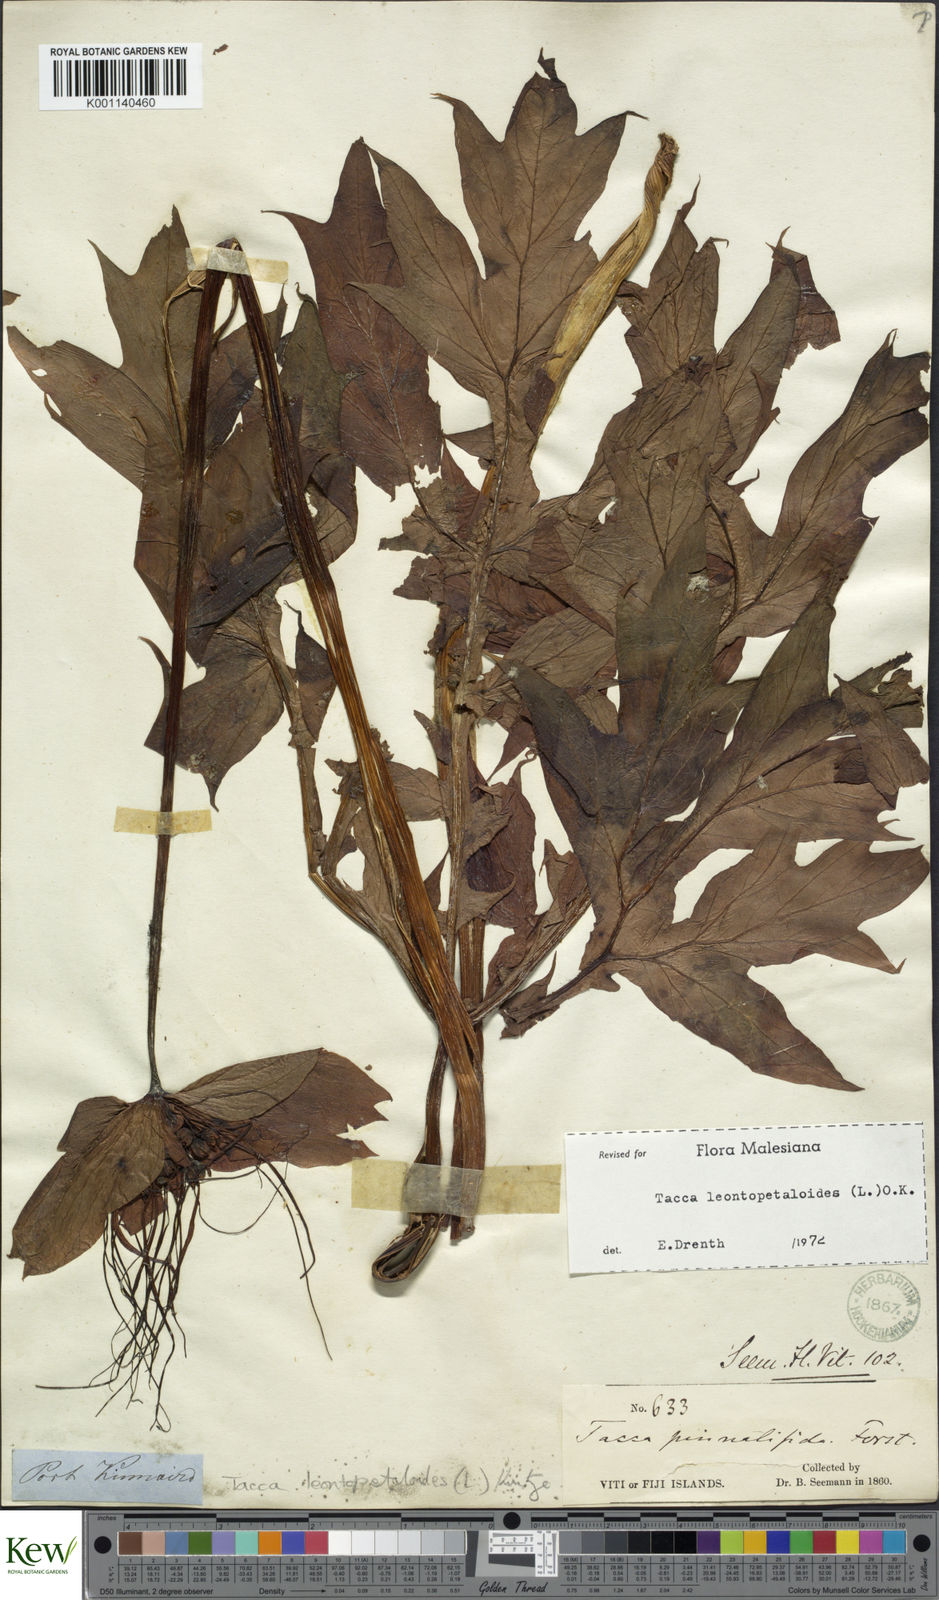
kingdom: Plantae
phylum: Tracheophyta
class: Liliopsida
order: Dioscoreales
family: Dioscoreaceae
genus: Tacca
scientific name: Tacca leontopetaloides
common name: Arrowroot
